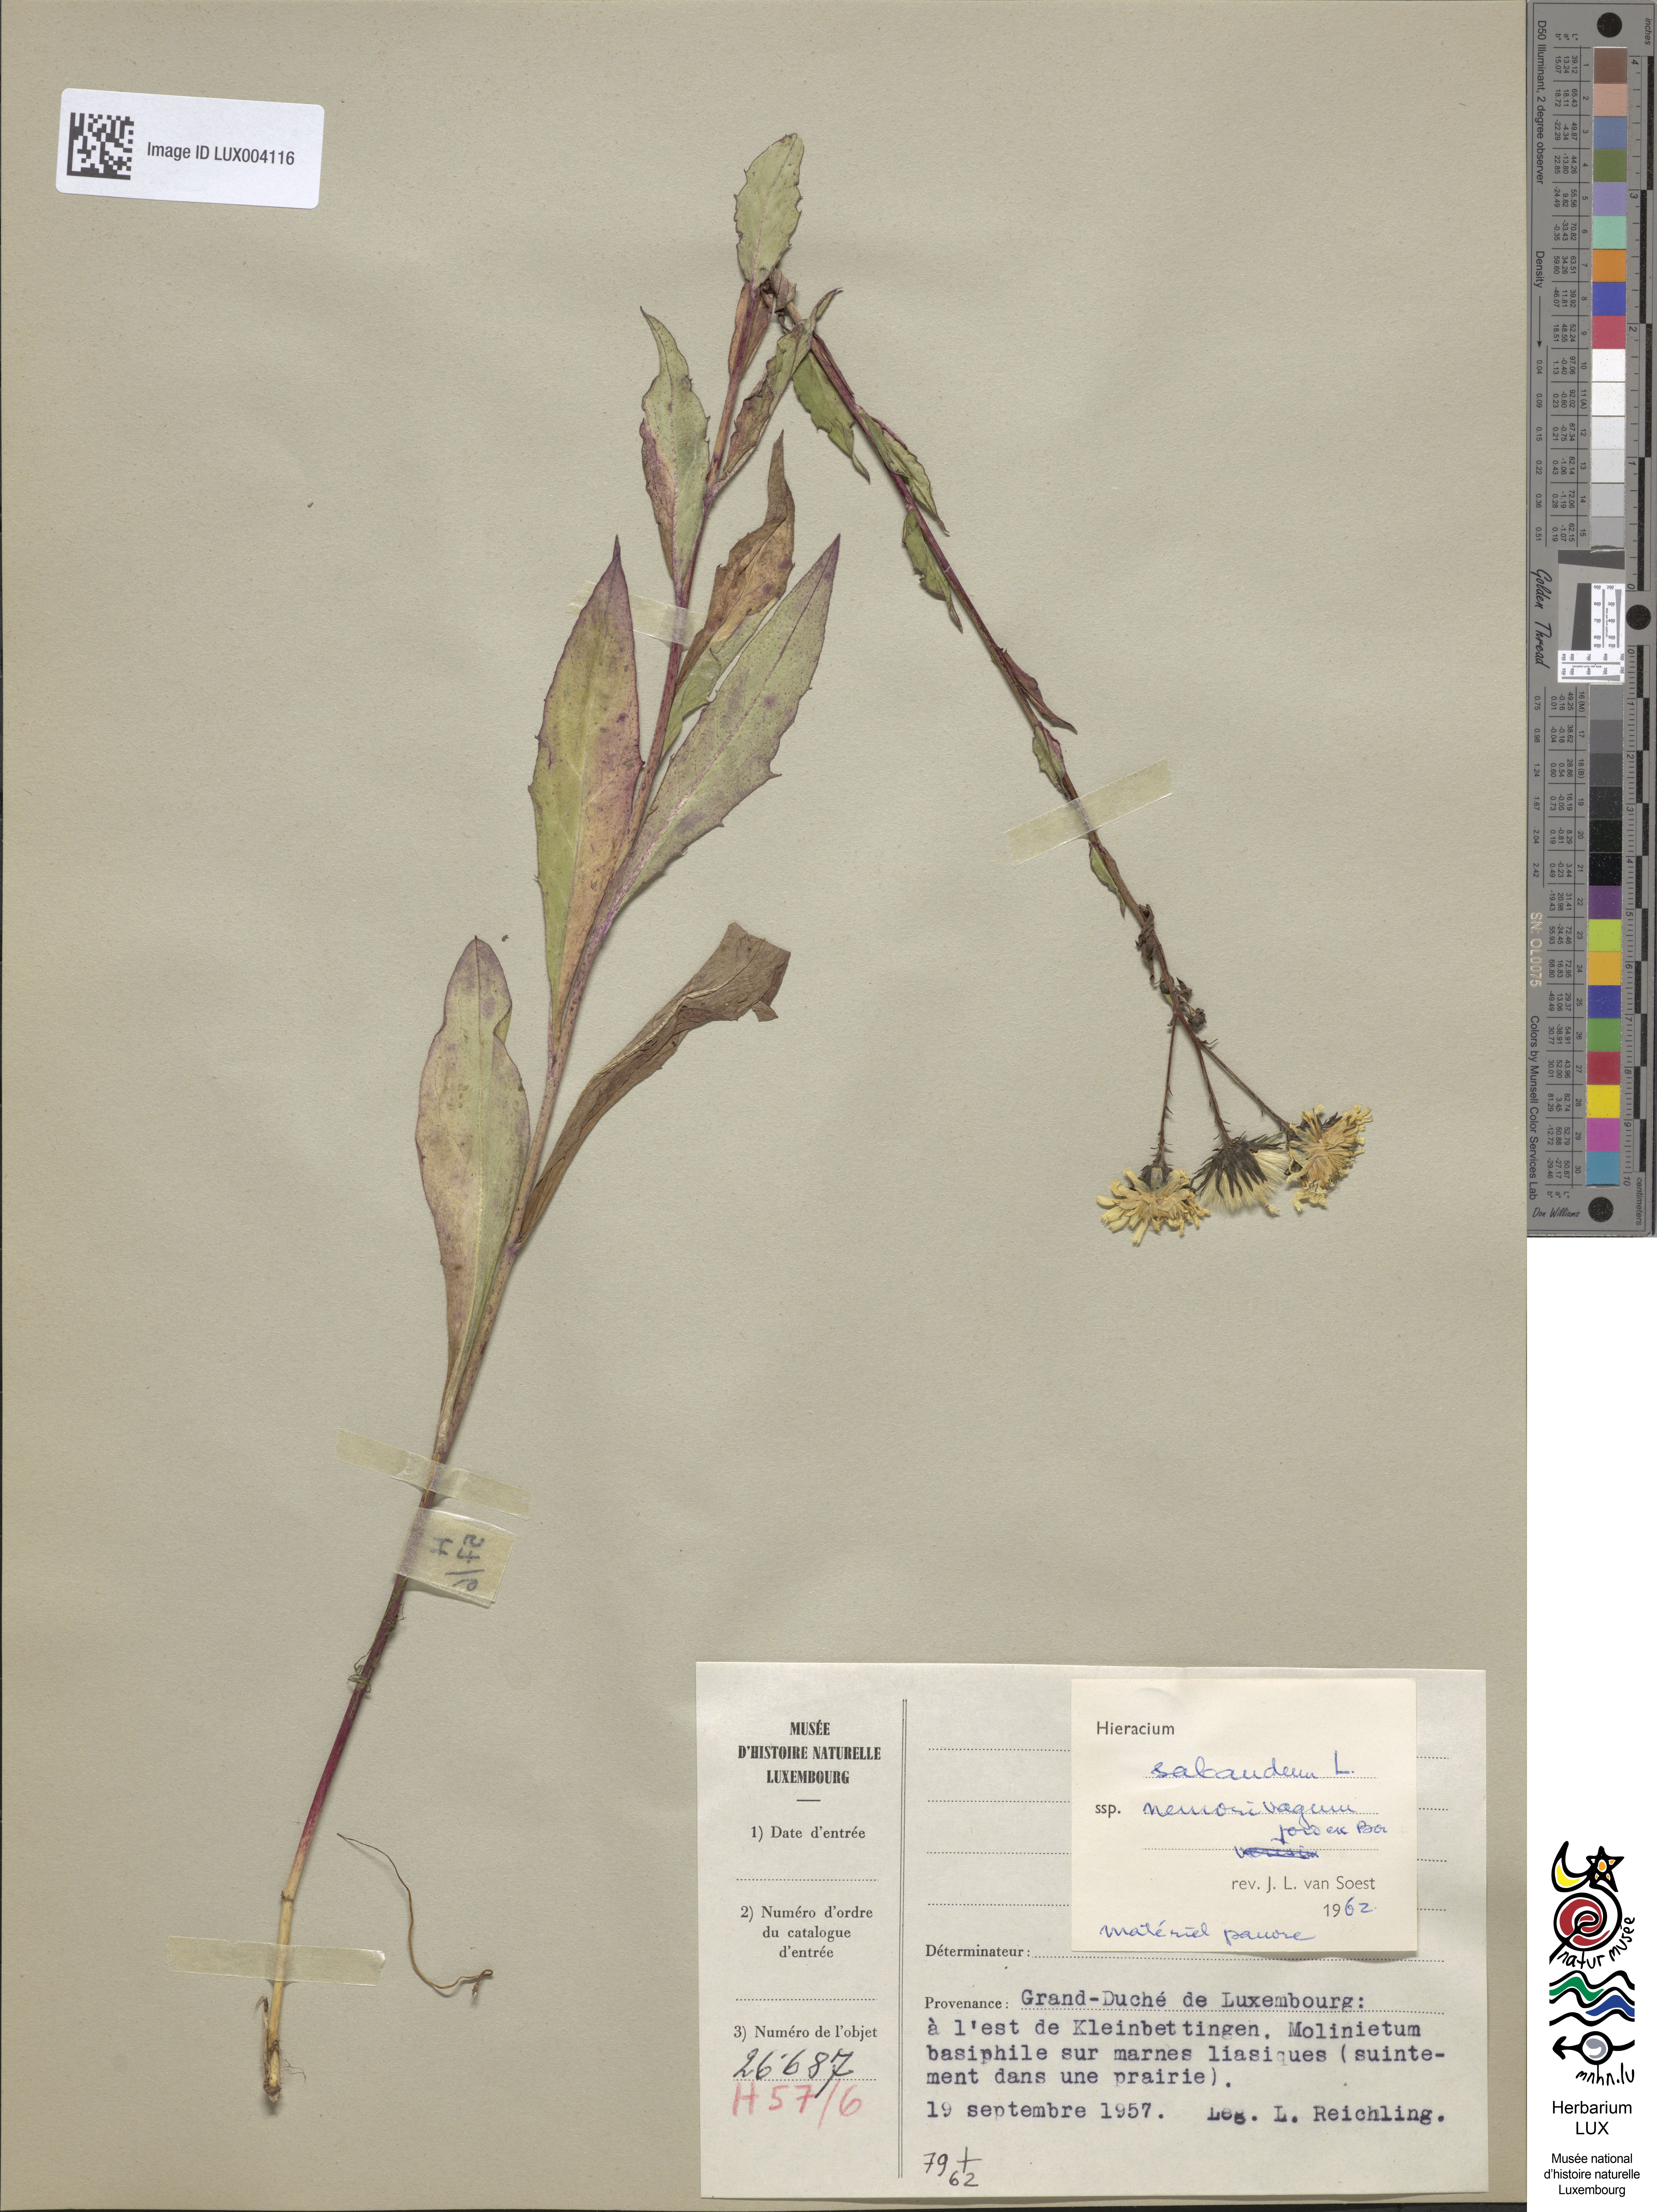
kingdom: Plantae
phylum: Tracheophyta
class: Magnoliopsida
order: Asterales
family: Asteraceae
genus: Hieracium
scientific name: Hieracium sabaudum
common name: New england hawkweed
